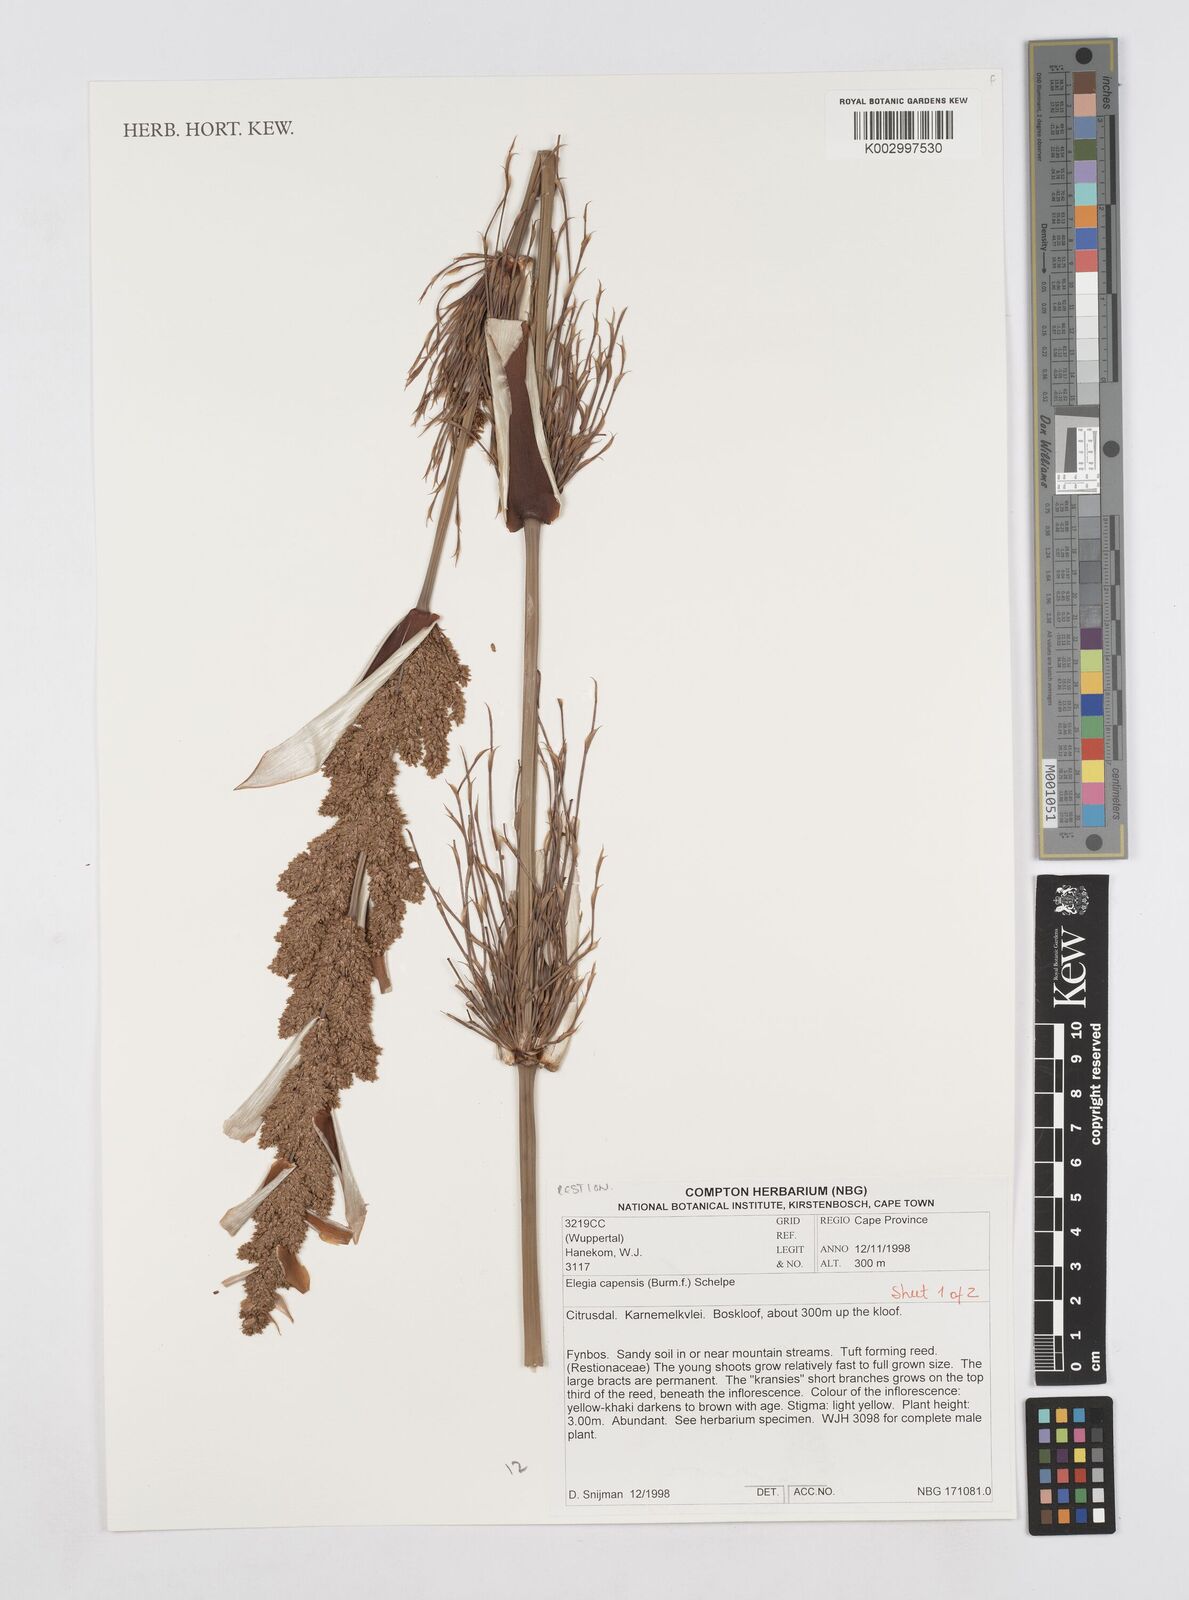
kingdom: Plantae
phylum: Tracheophyta
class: Liliopsida
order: Poales
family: Restionaceae
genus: Elegia
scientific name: Elegia capensis
